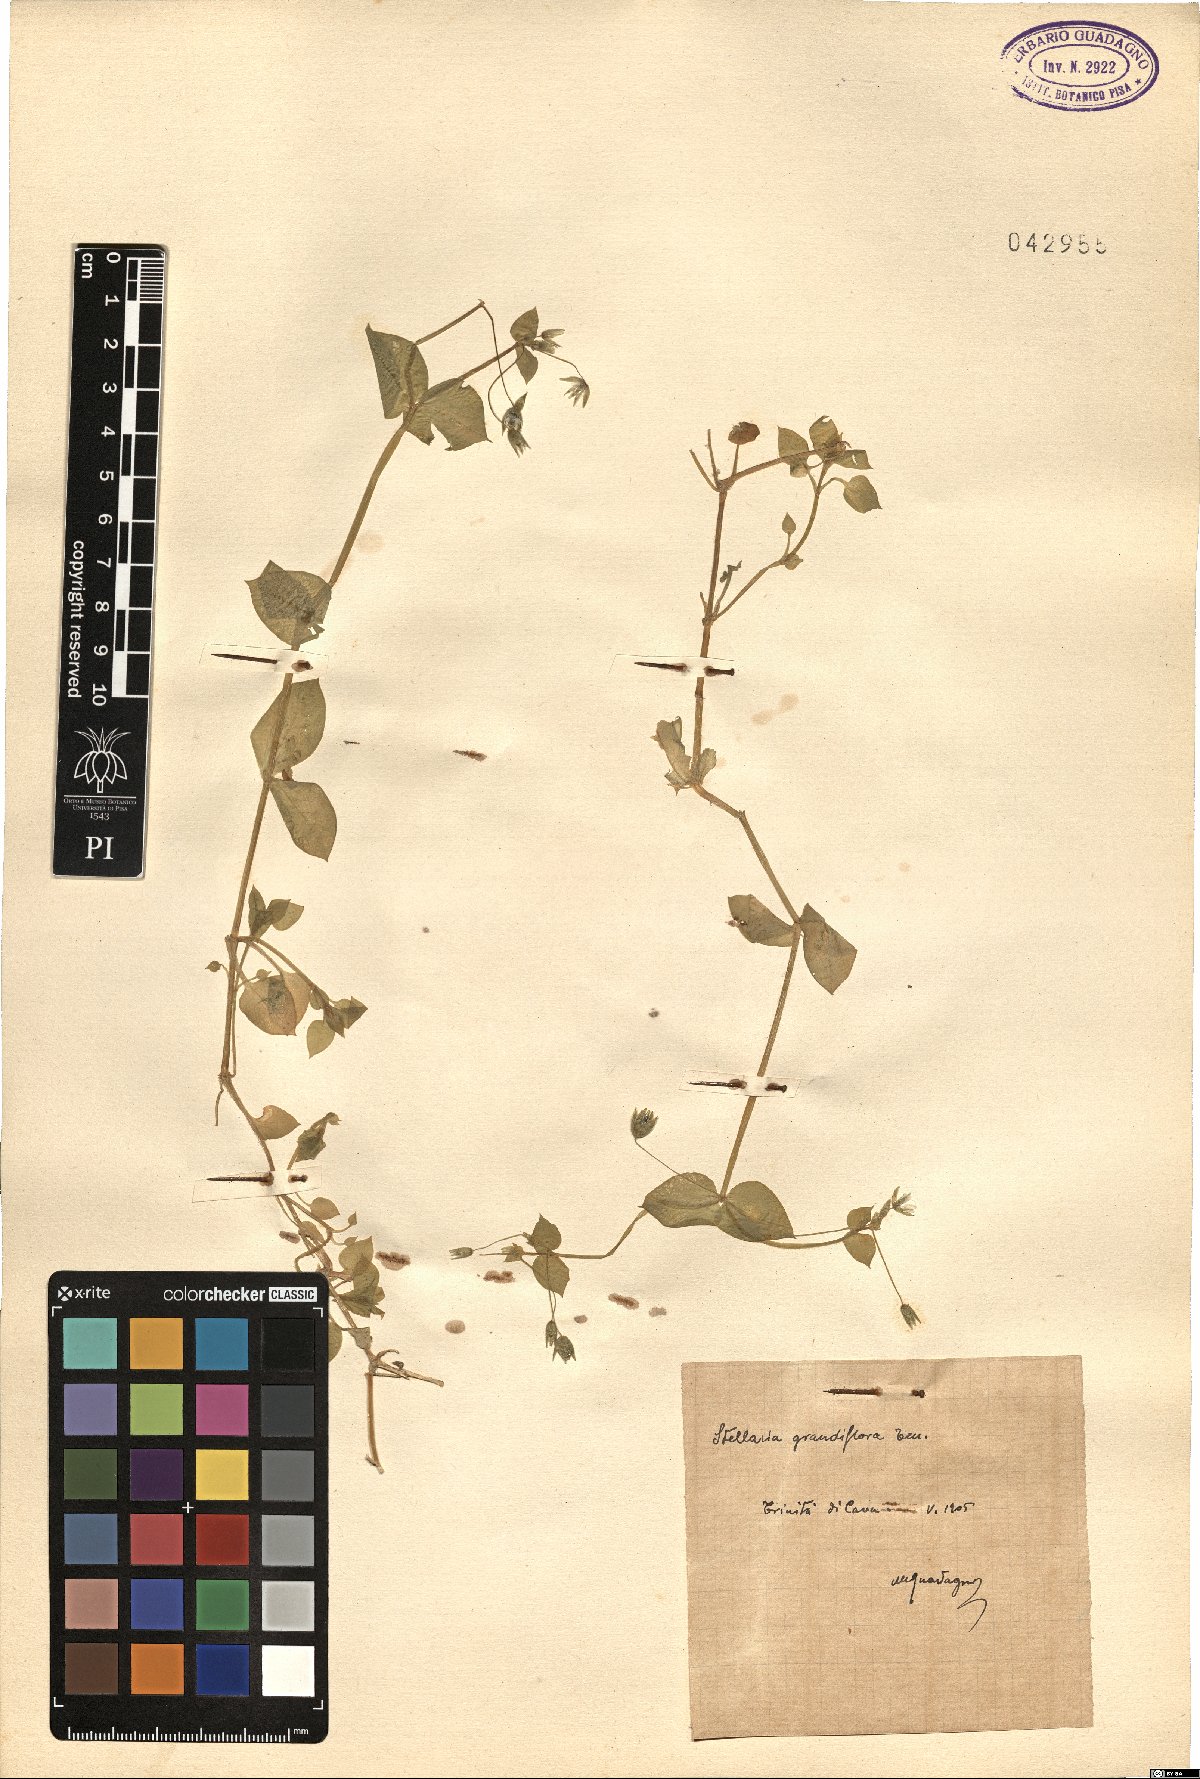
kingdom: Plantae
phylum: Tracheophyta
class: Magnoliopsida
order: Caryophyllales
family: Caryophyllaceae
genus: Stellaria
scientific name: Stellaria
